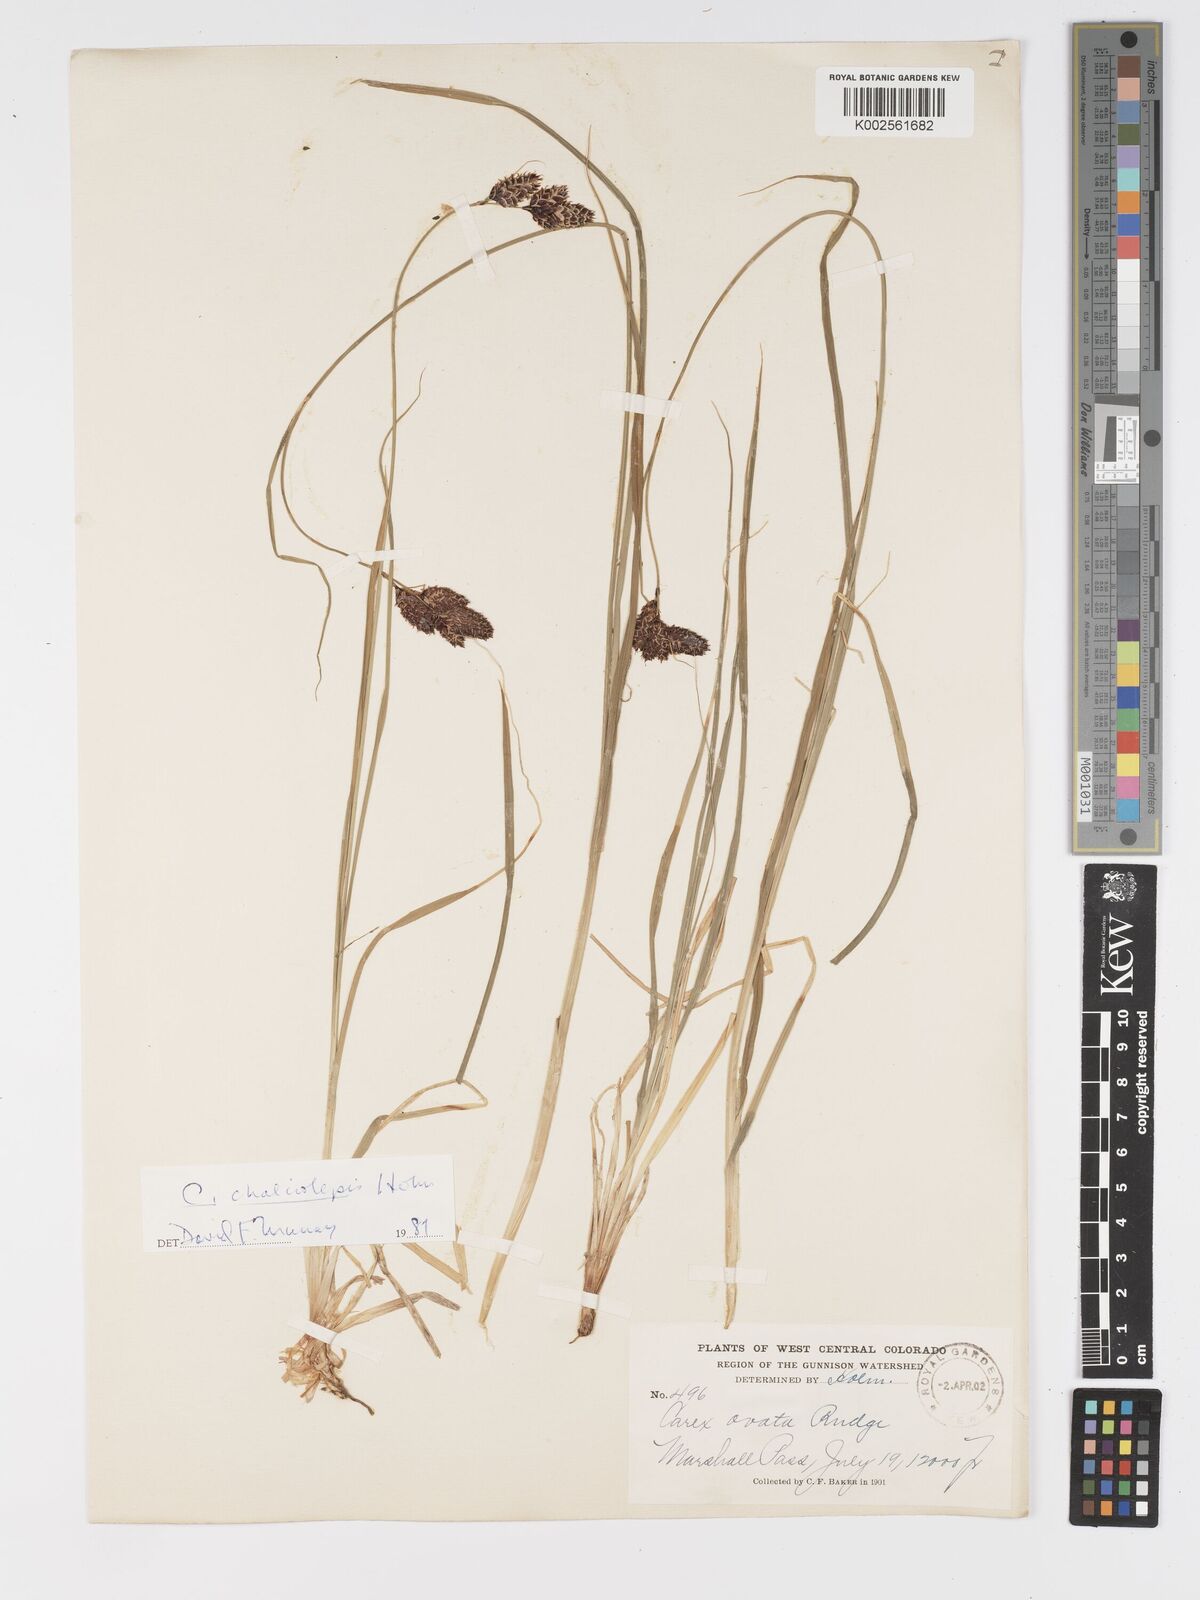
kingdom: Plantae
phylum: Tracheophyta
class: Liliopsida
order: Poales
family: Cyperaceae
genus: Carex
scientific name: Carex chalciolepis
